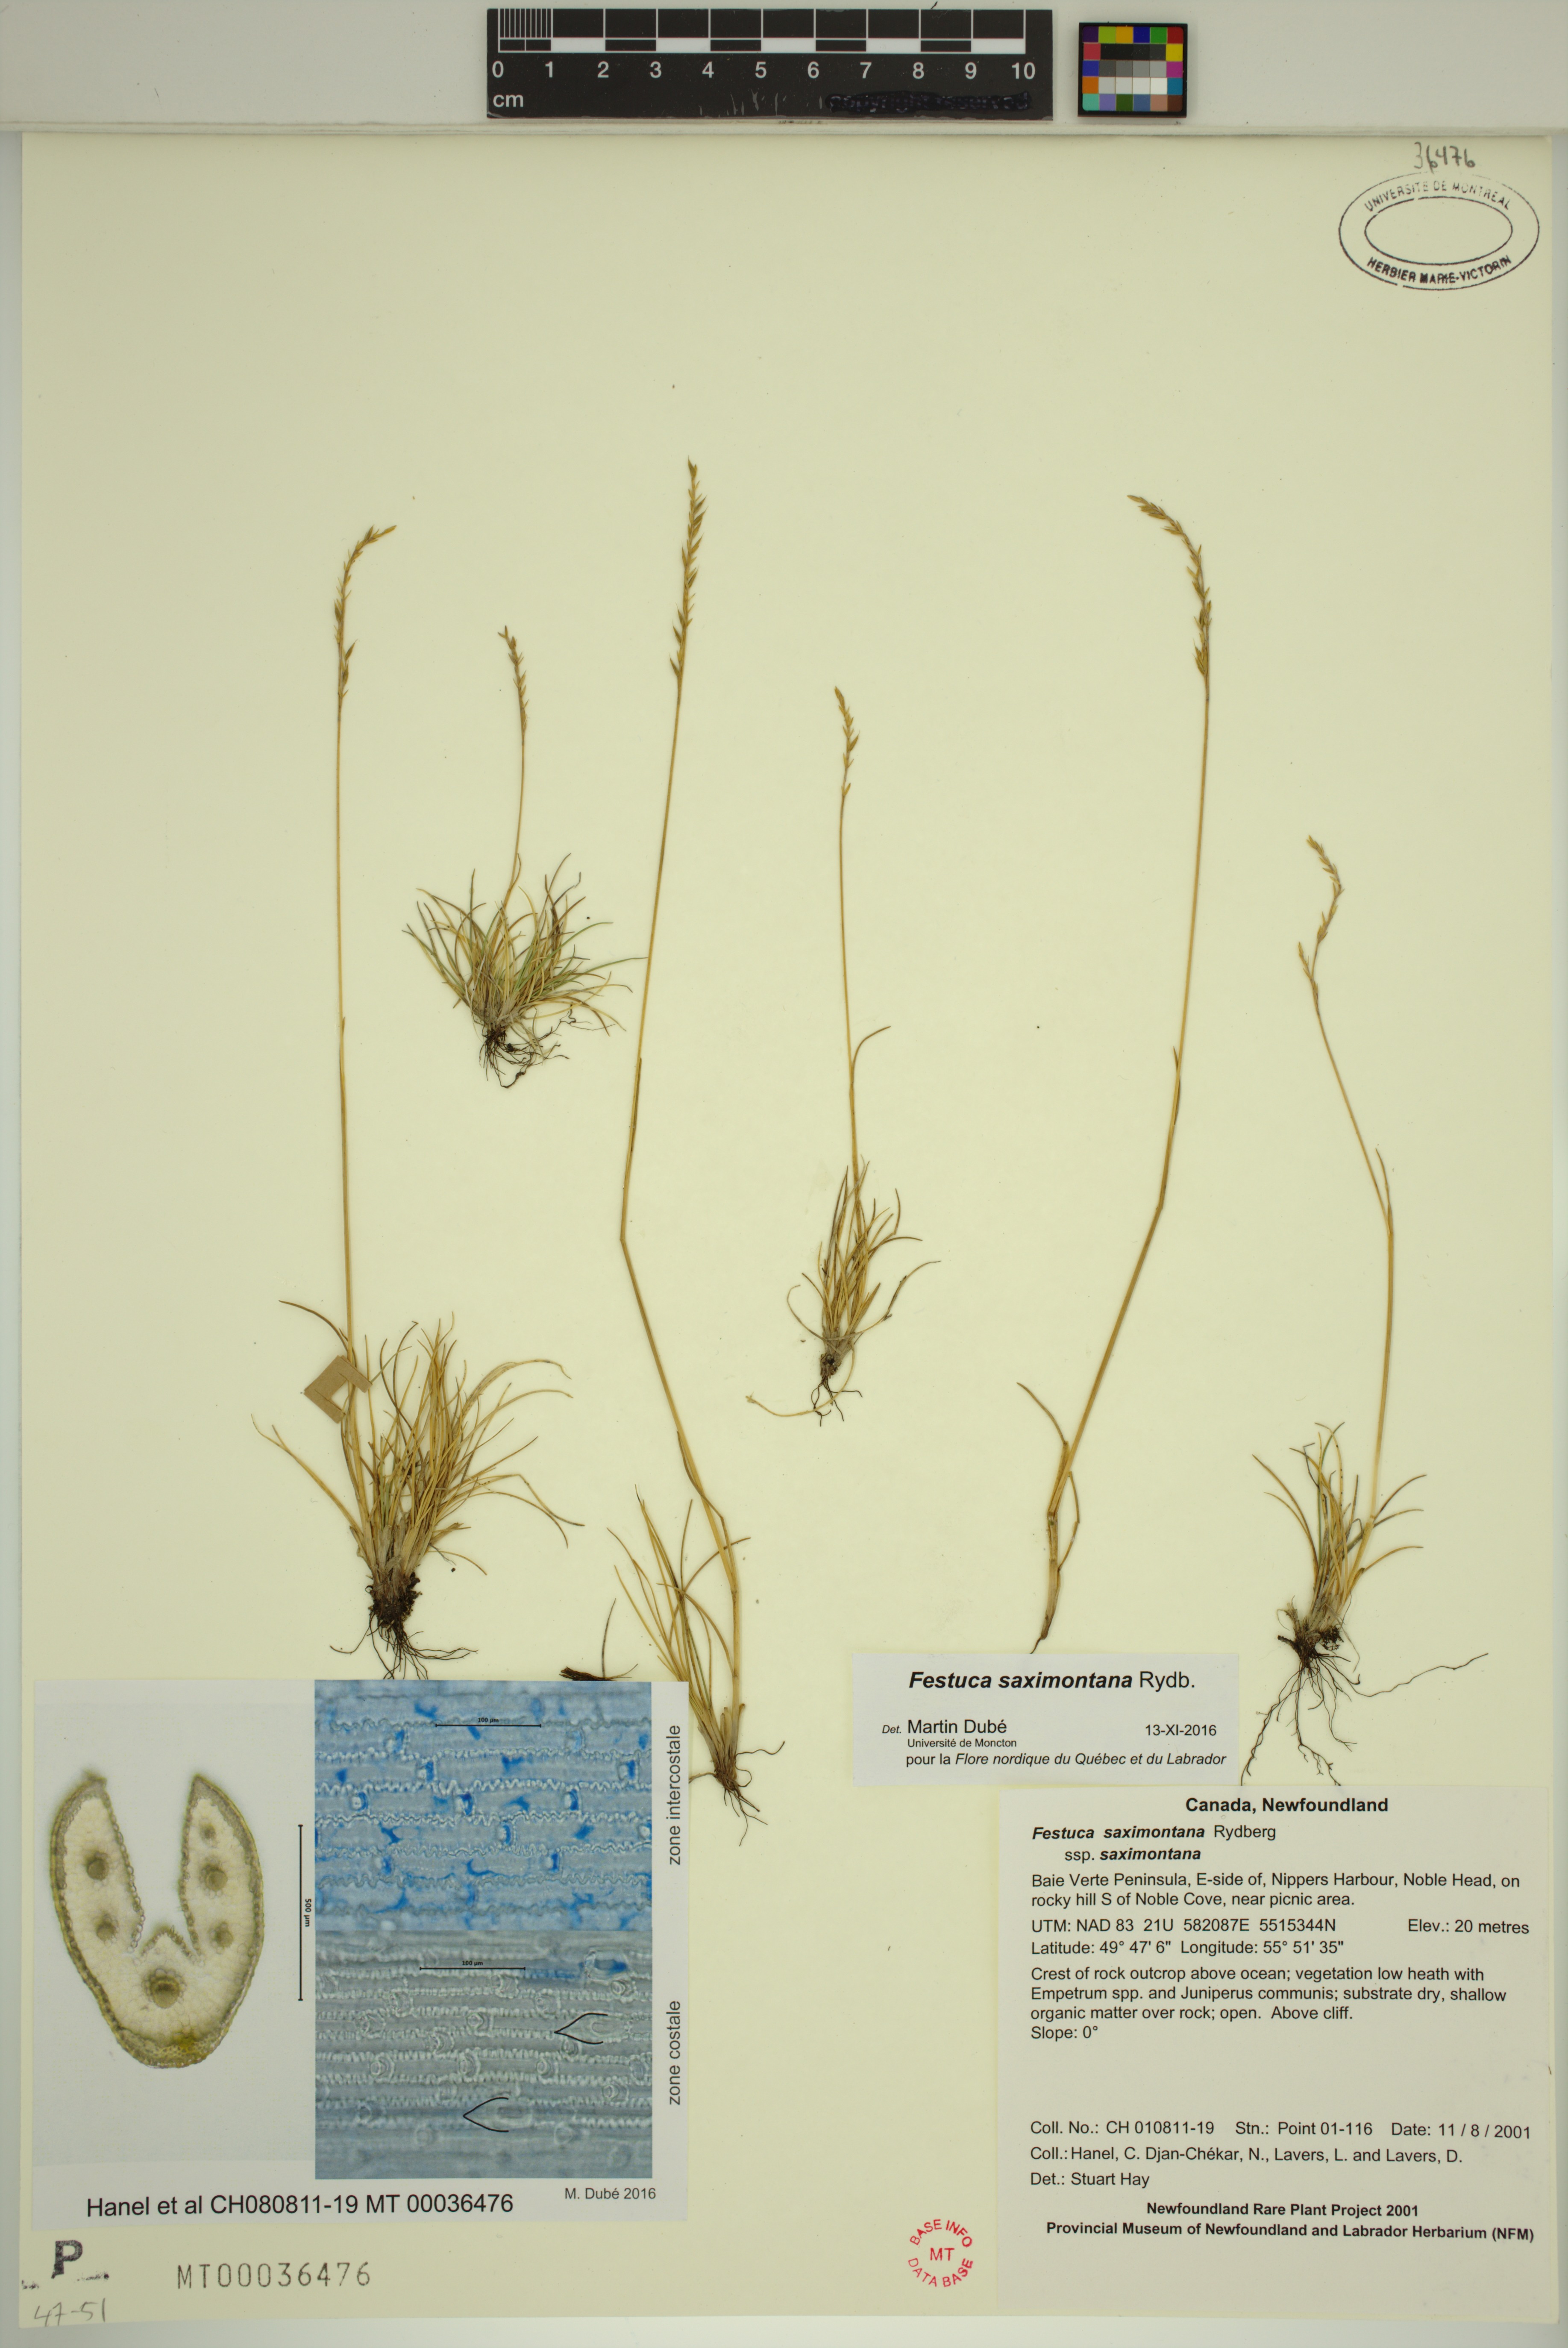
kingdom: Plantae
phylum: Tracheophyta
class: Liliopsida
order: Poales
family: Poaceae
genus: Festuca
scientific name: Festuca saximontana
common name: Mountain fescue
